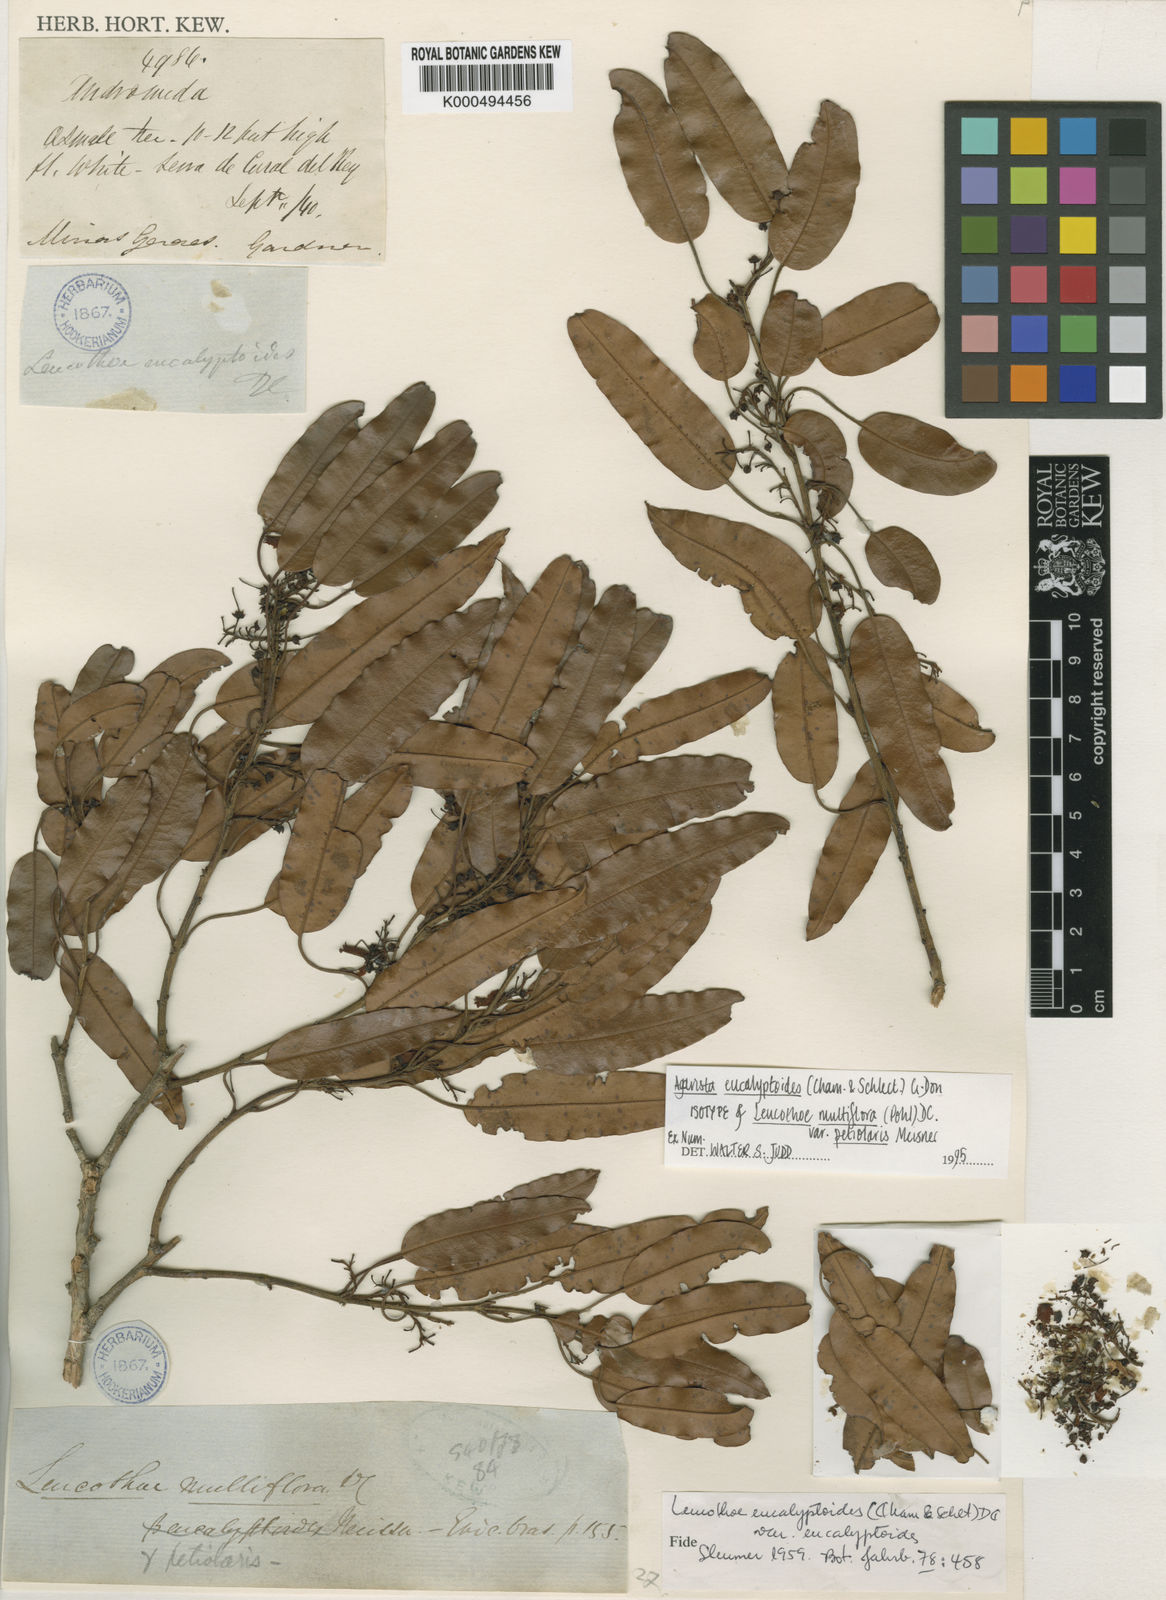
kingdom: Plantae
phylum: Tracheophyta
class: Magnoliopsida
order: Ericales
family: Ericaceae
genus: Agarista
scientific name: Agarista eucalyptoides
